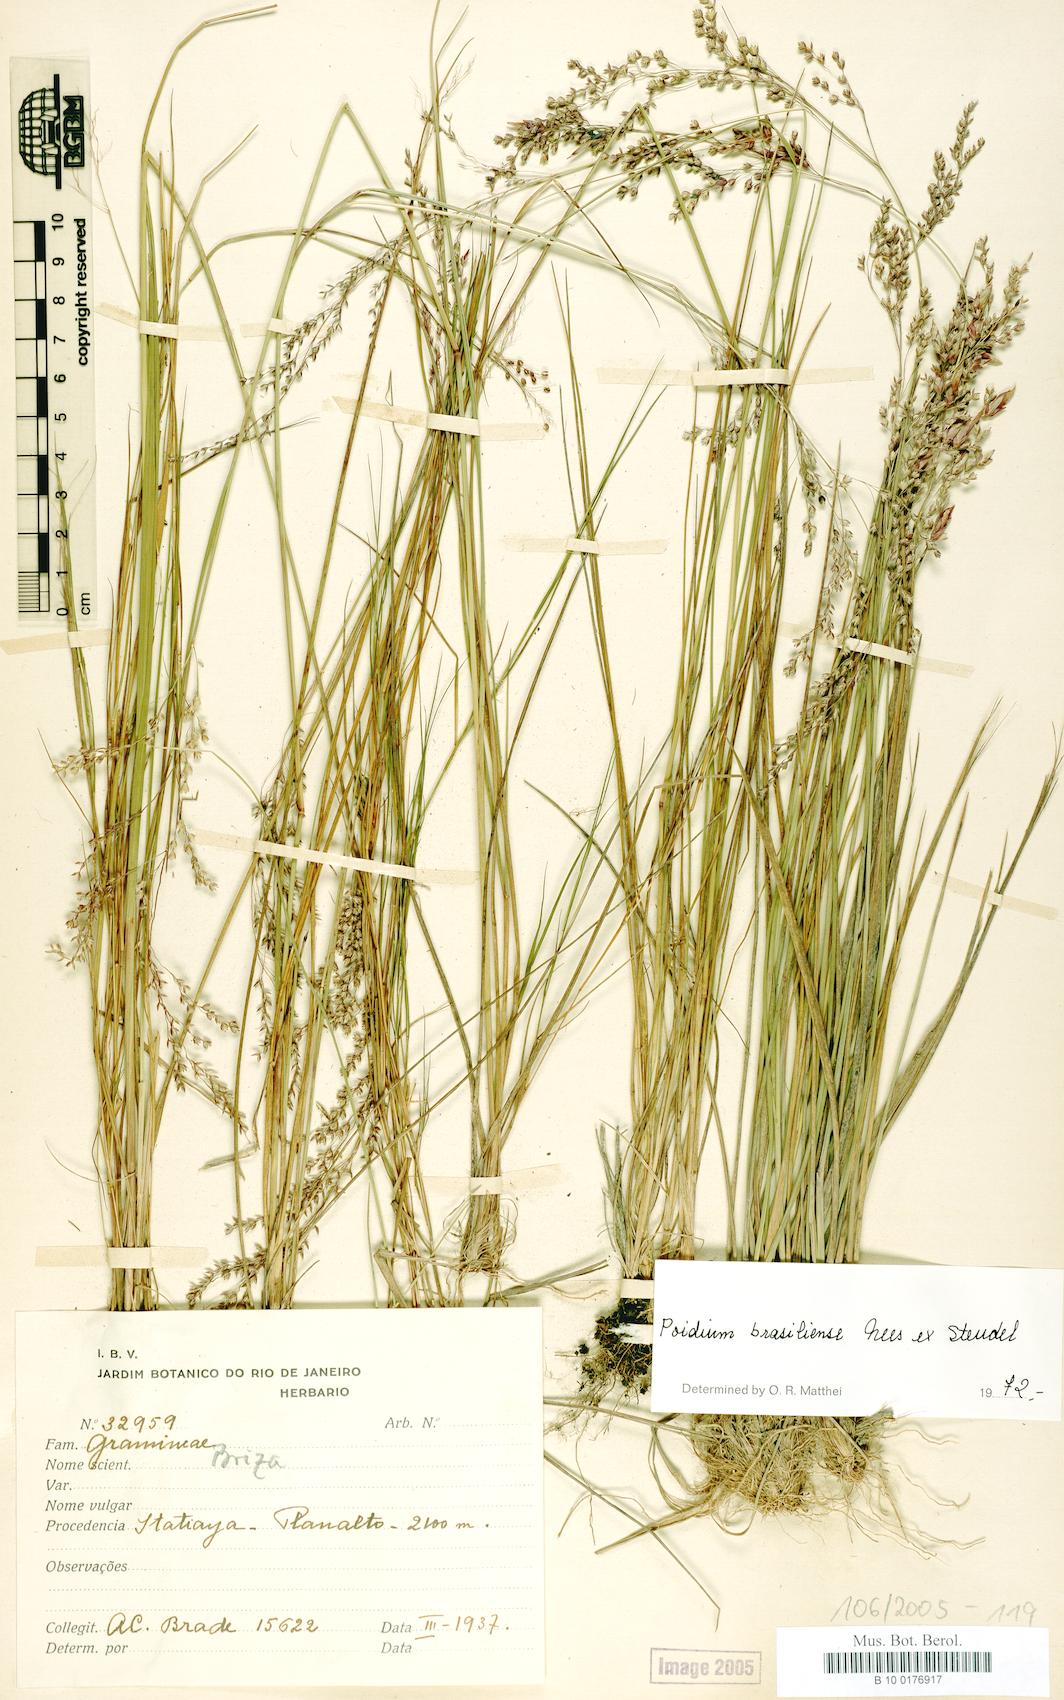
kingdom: Plantae
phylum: Tracheophyta
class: Liliopsida
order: Poales
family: Poaceae
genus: Poidium
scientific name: Poidium brasiliense
